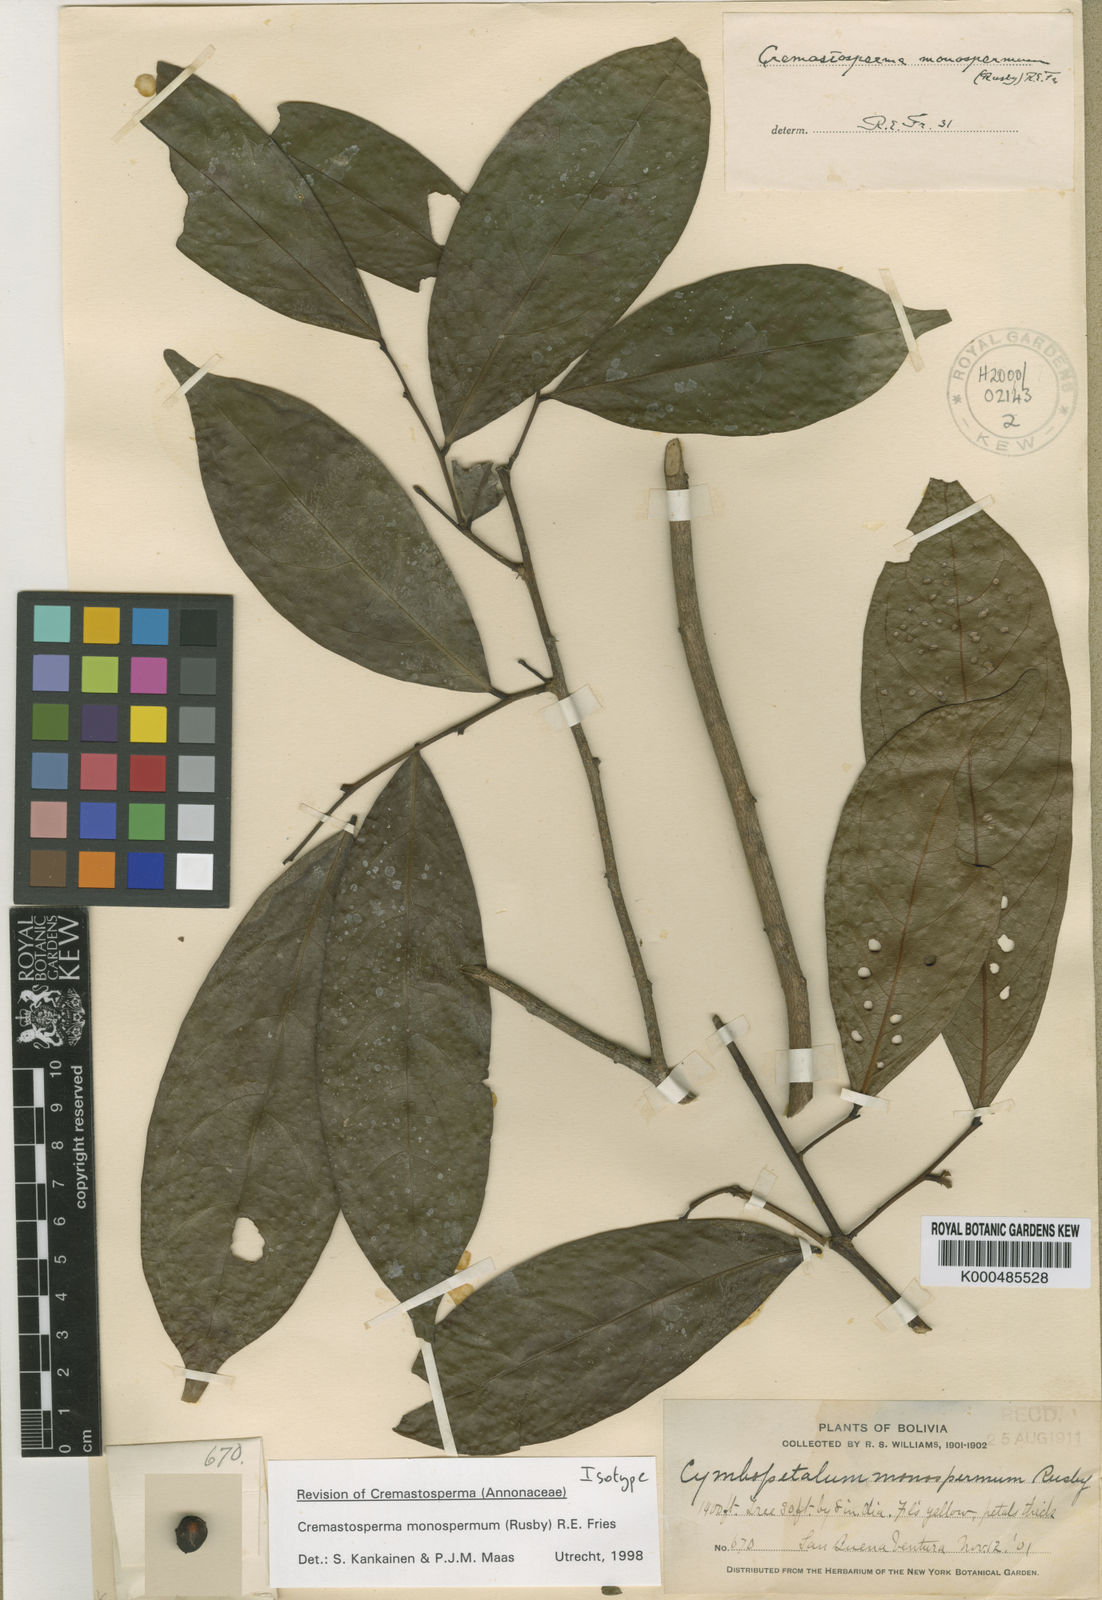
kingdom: Plantae
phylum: Tracheophyta
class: Magnoliopsida
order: Magnoliales
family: Annonaceae
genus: Cremastosperma
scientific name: Cremastosperma monospermum
